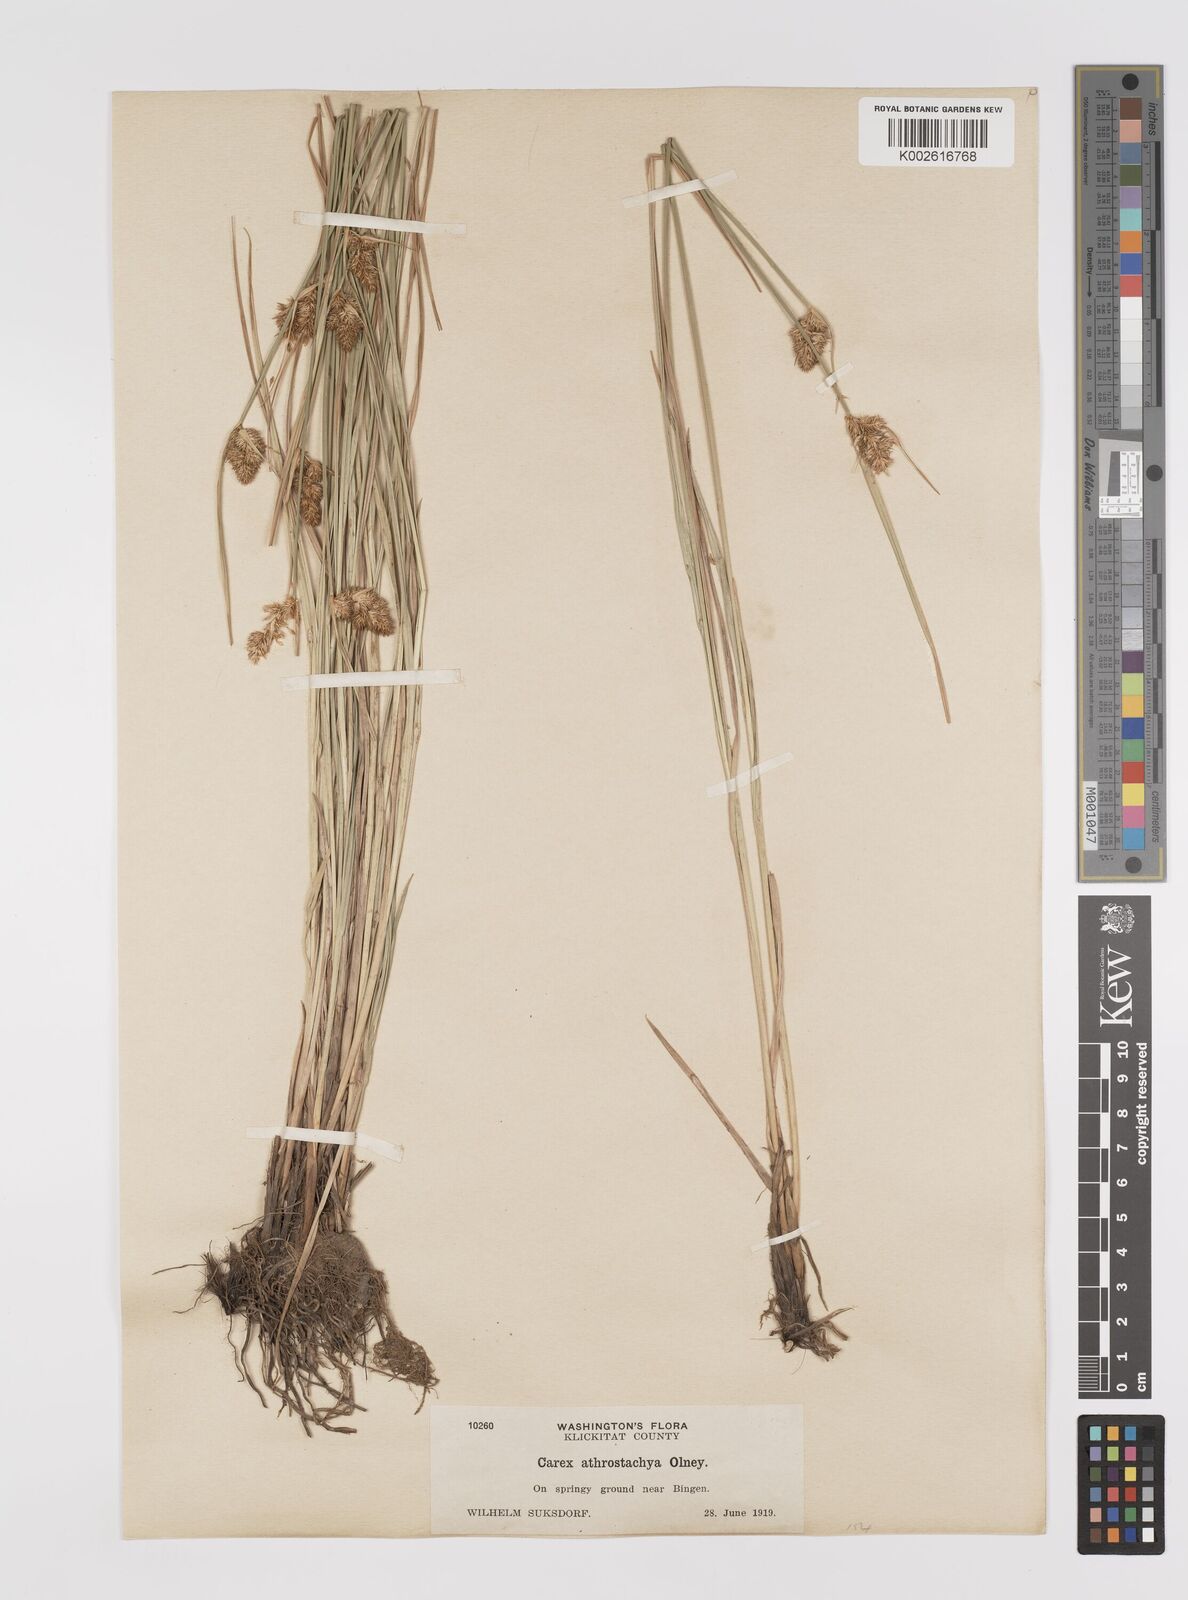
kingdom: Plantae
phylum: Tracheophyta
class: Liliopsida
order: Poales
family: Cyperaceae
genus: Carex
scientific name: Carex athrostachya
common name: Slenderbeak sedge
